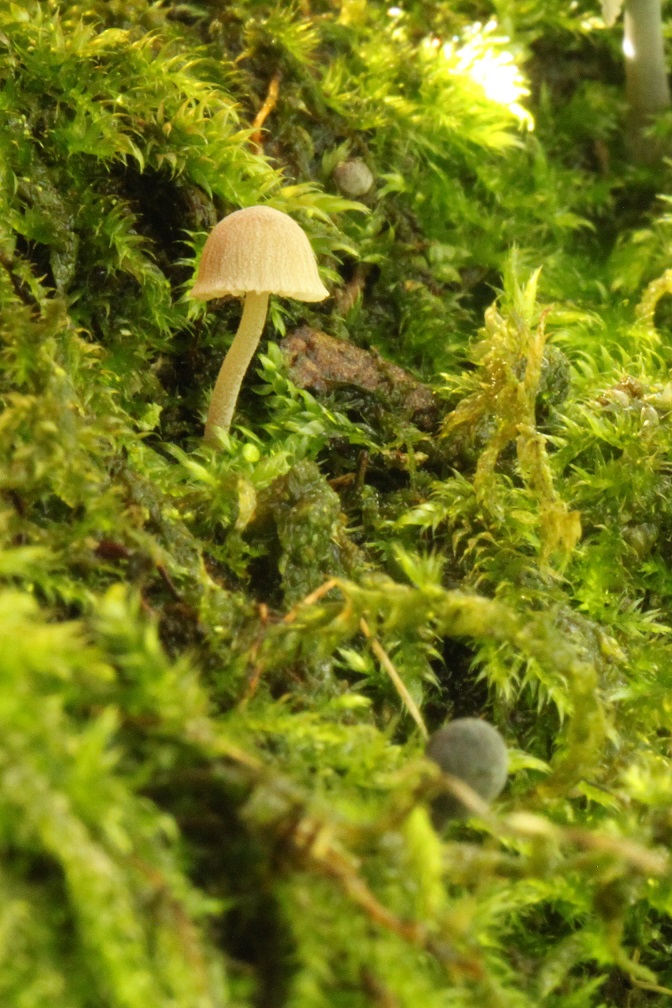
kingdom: Fungi
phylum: Basidiomycota
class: Agaricomycetes
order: Agaricales
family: Mycenaceae
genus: Mycena
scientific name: Mycena pseudocorticola
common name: gråblå bark-huesvamp
